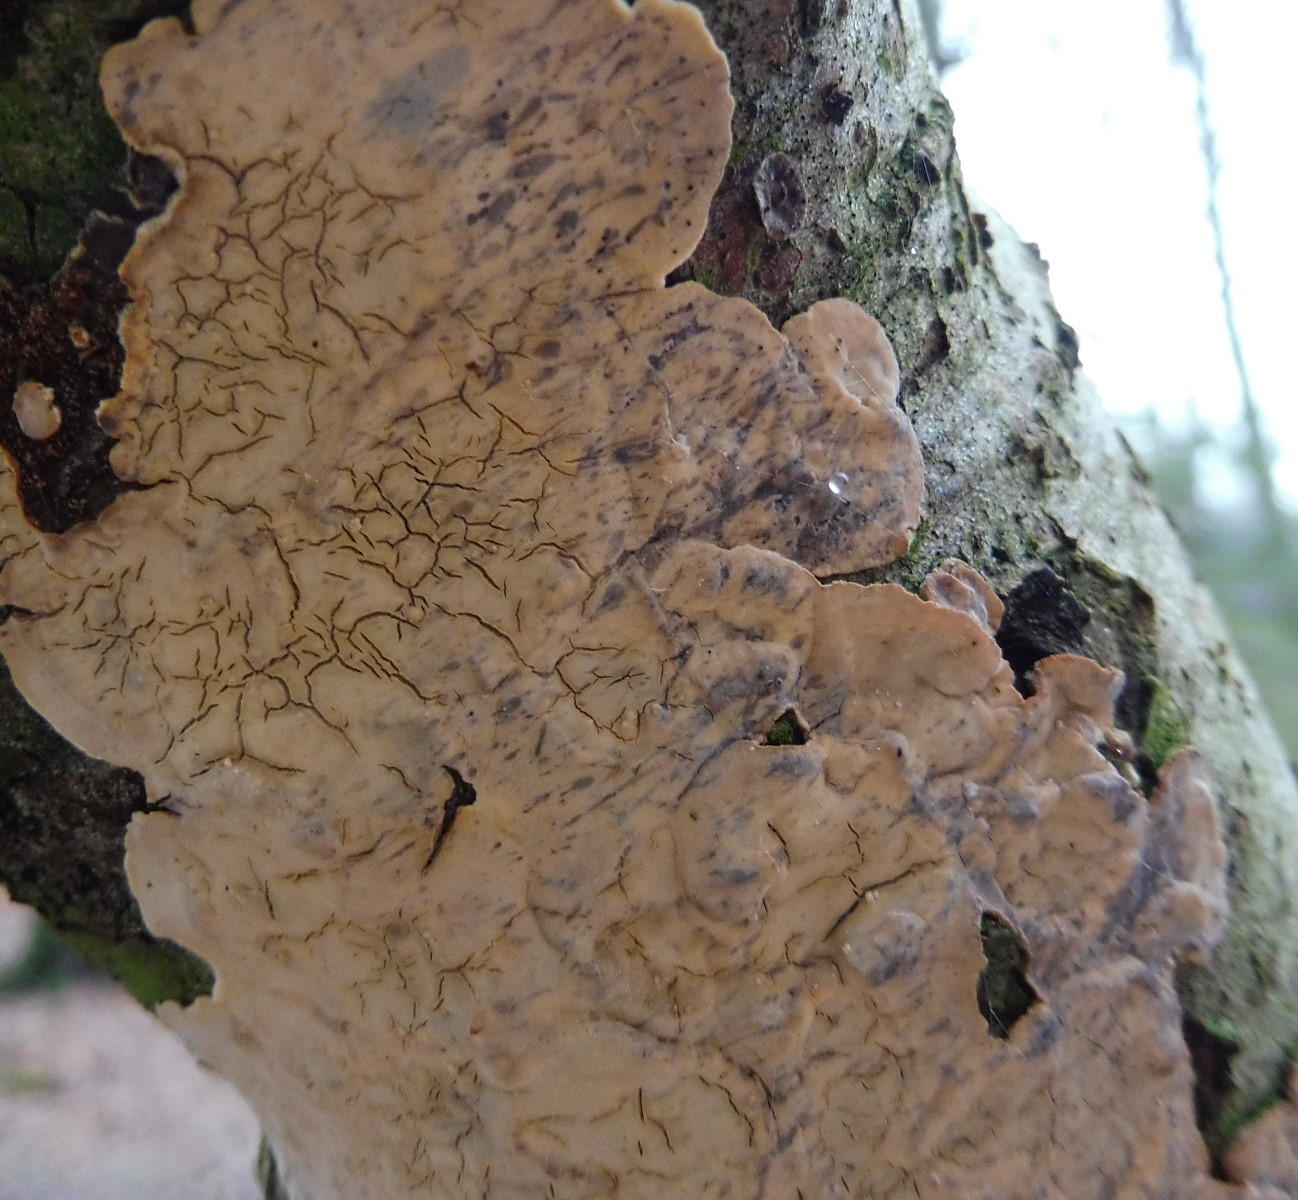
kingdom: Fungi
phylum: Basidiomycota
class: Agaricomycetes
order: Russulales
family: Stereaceae
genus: Stereum
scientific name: Stereum
